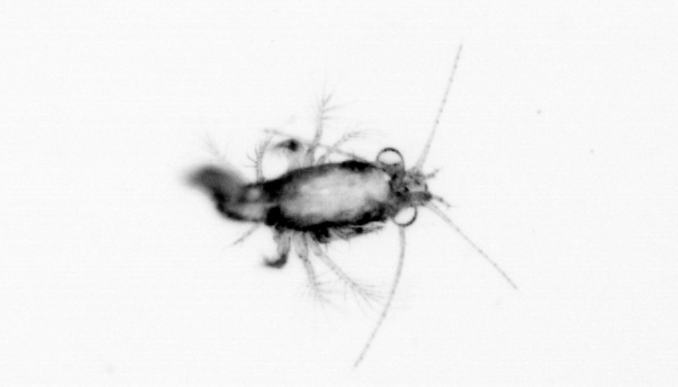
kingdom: Animalia
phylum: Arthropoda
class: Malacostraca
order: Decapoda
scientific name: Decapoda
